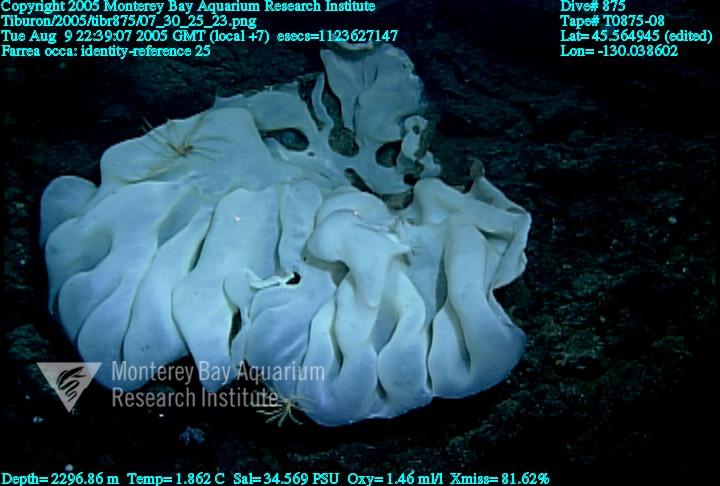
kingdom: Animalia
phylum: Porifera
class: Hexactinellida
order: Sceptrulophora
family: Farreidae
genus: Farrea
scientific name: Farrea occa
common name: Reversed glass sponge
